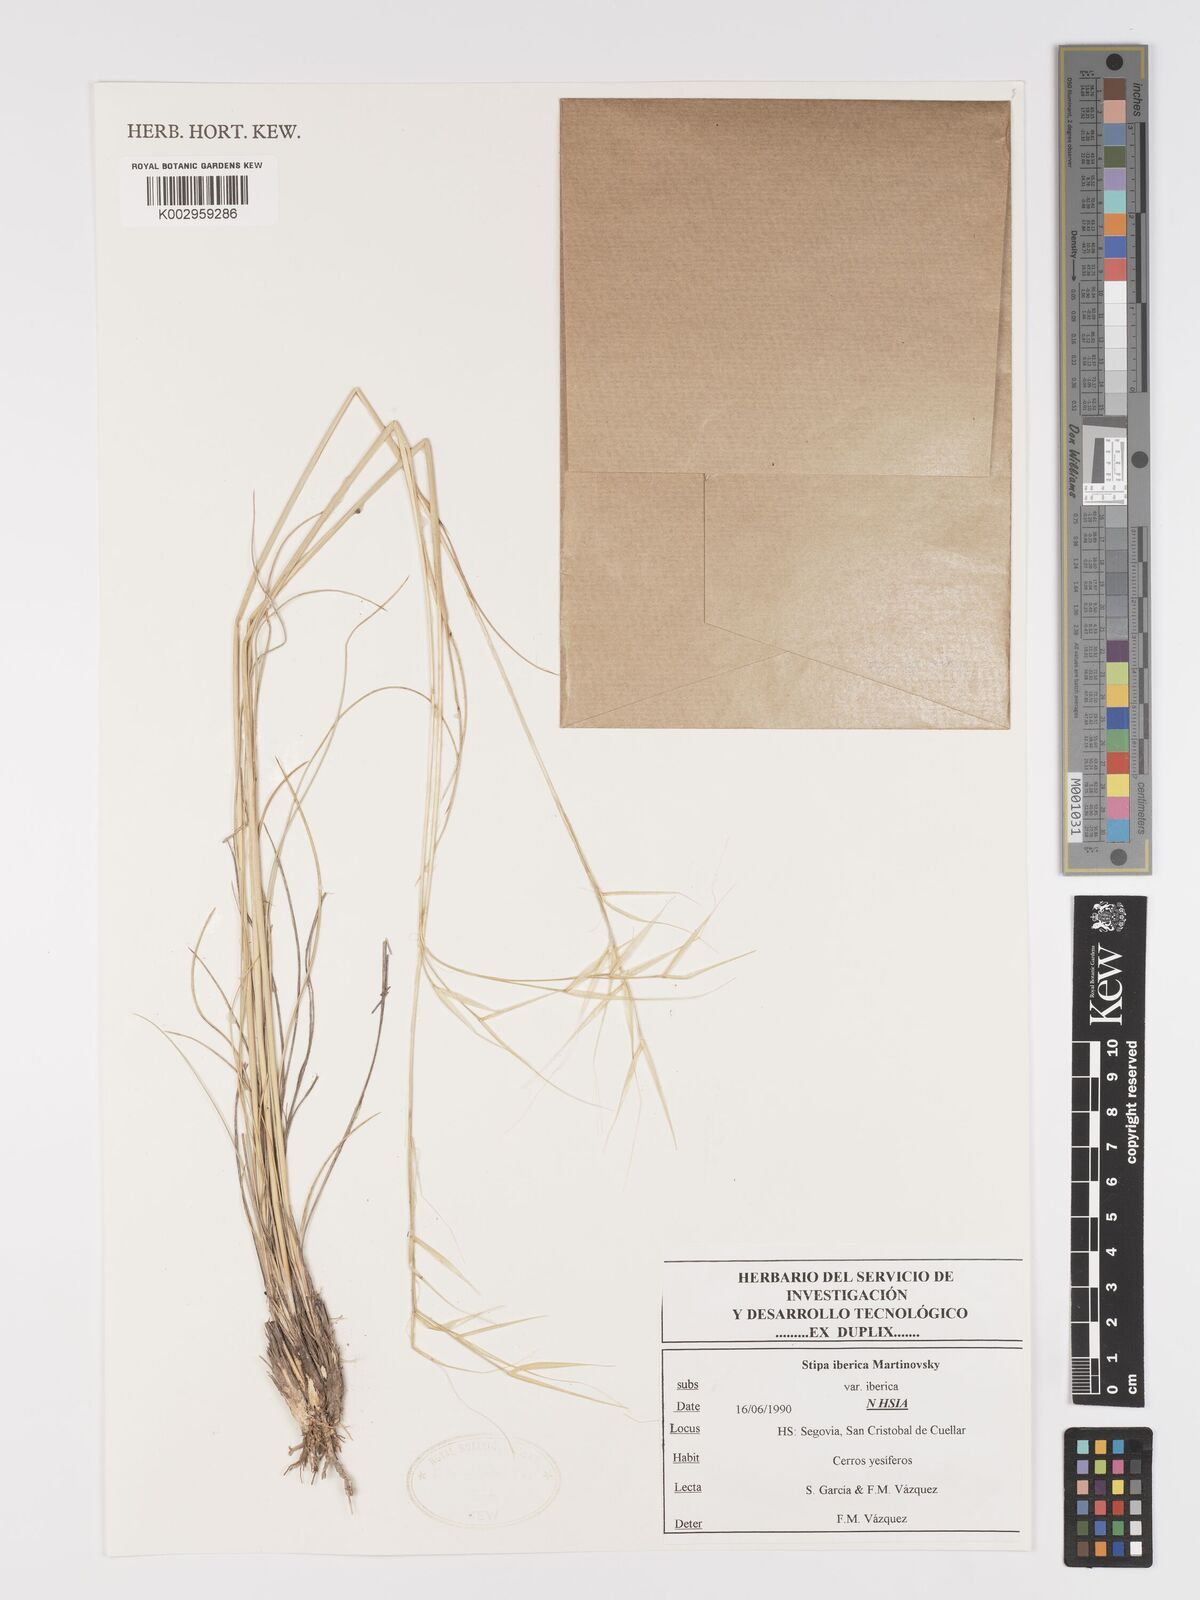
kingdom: Plantae
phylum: Tracheophyta
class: Liliopsida
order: Poales
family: Poaceae
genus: Stipa
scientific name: Stipa iberica
